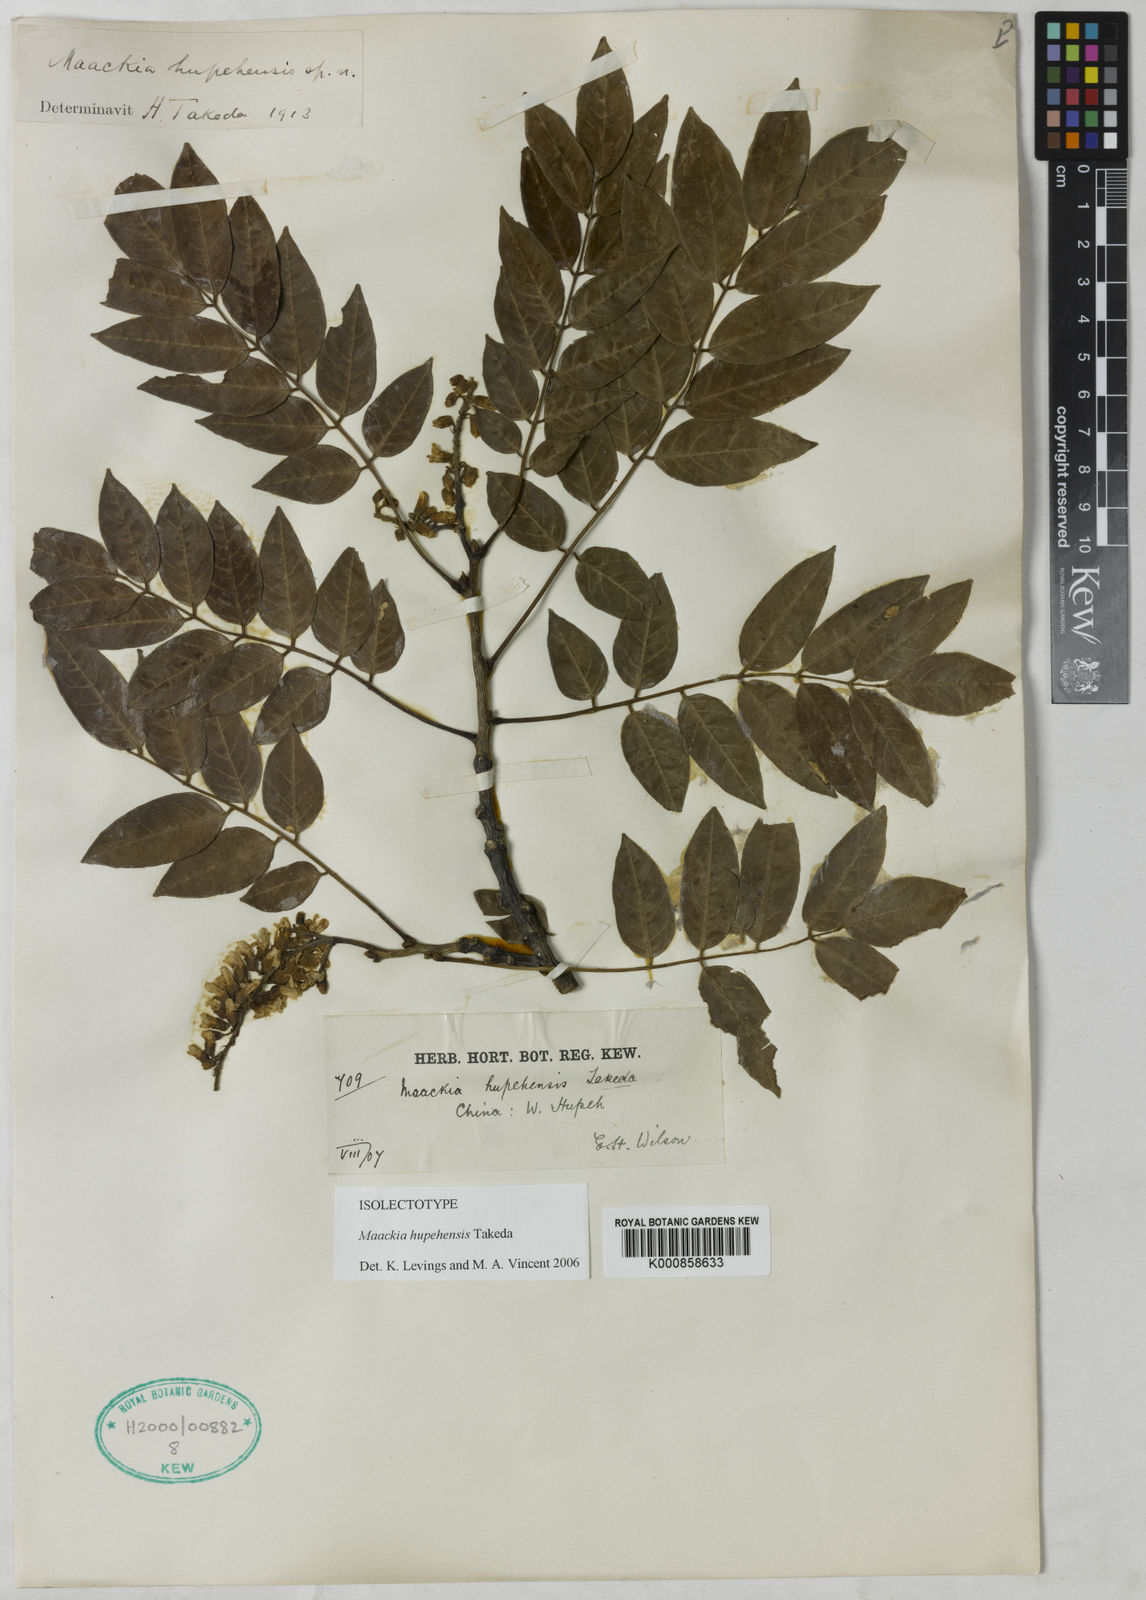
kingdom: Plantae
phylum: Tracheophyta
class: Magnoliopsida
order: Fabales
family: Fabaceae
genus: Maackia
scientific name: Maackia hupehensis
